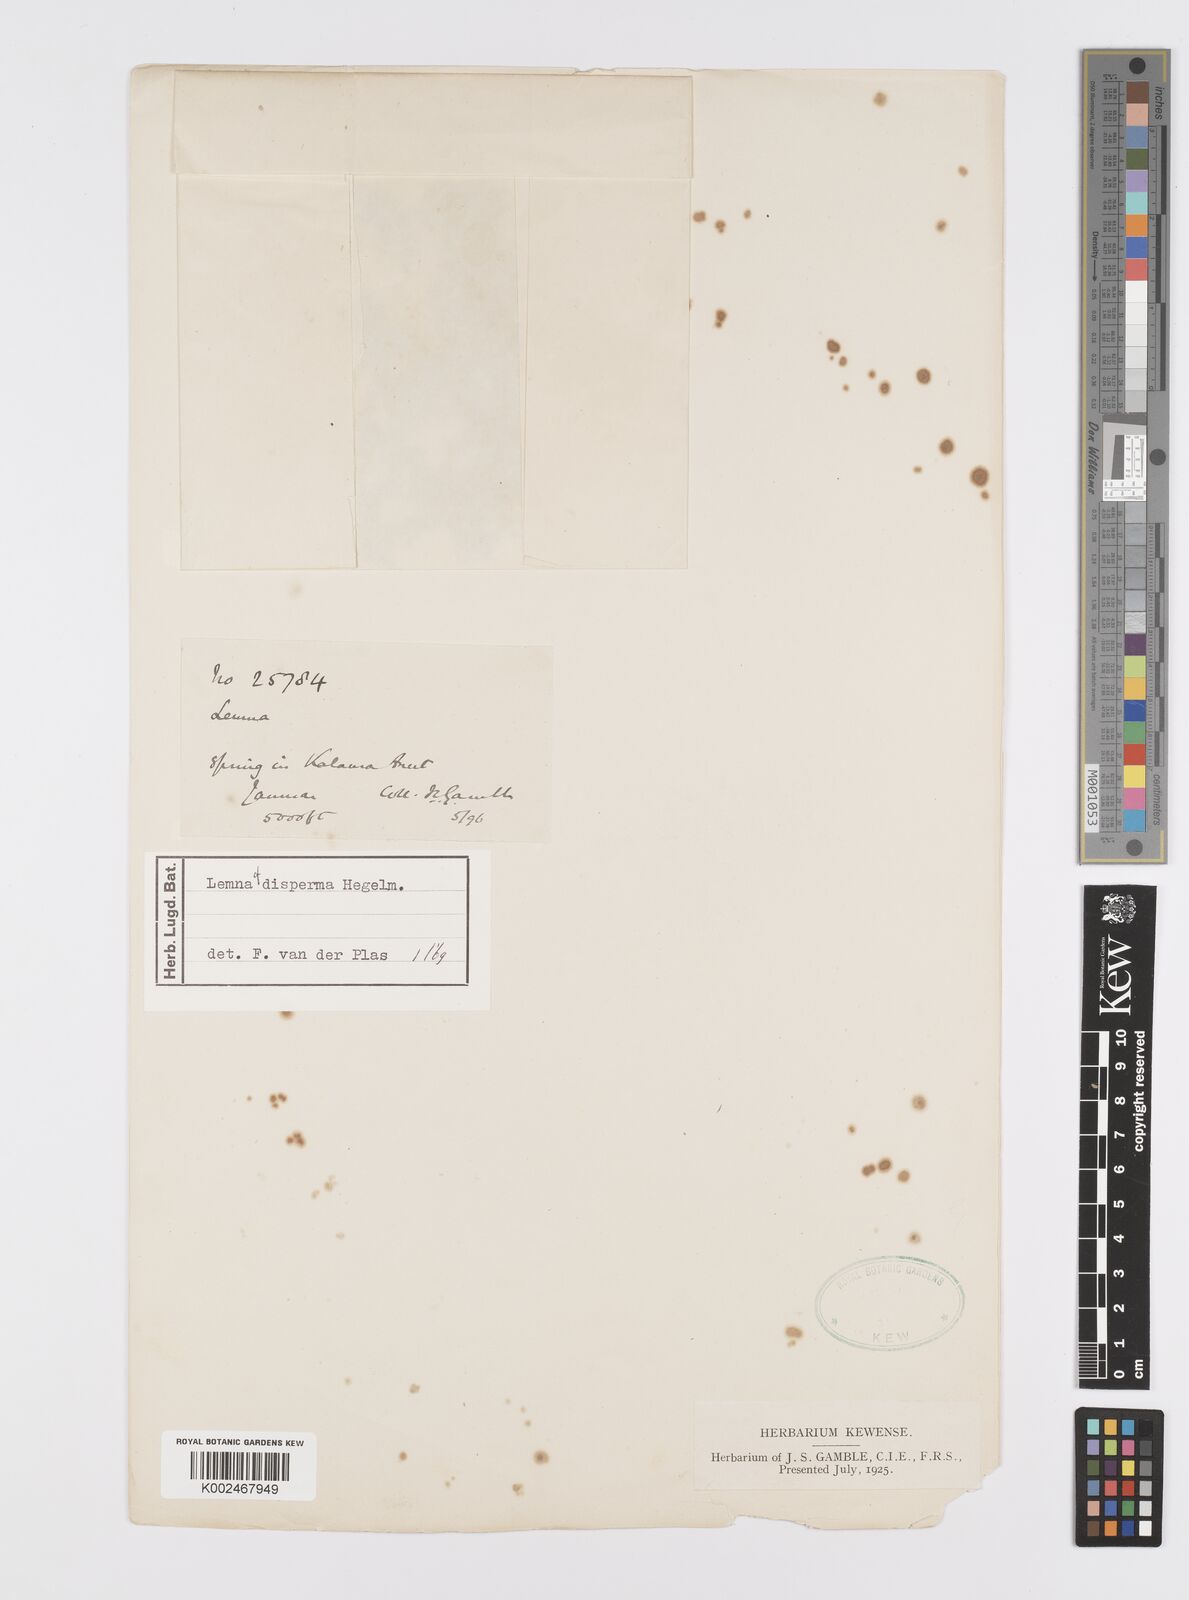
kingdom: Plantae
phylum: Tracheophyta
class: Liliopsida
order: Alismatales
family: Araceae
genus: Lemna
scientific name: Lemna disperma
